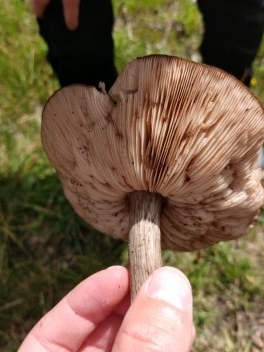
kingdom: Fungi
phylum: Basidiomycota
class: Agaricomycetes
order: Agaricales
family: Pluteaceae
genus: Pluteus
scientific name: Pluteus cervinus
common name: sodfarvet skærmhat
